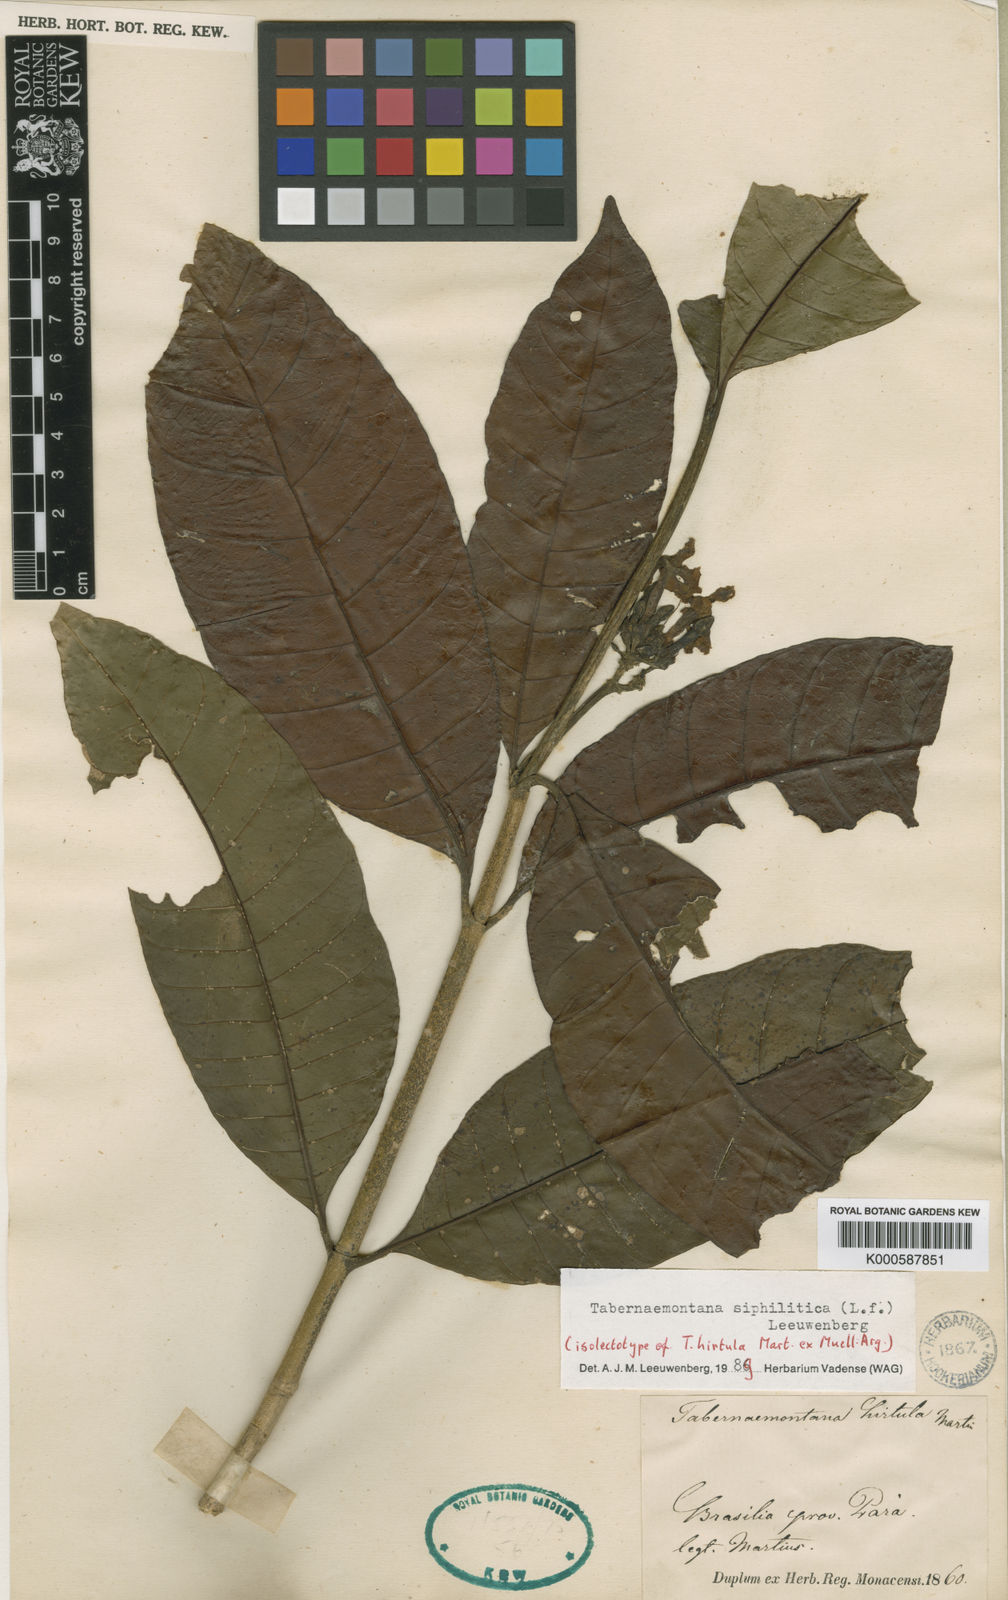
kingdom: Plantae
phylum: Tracheophyta
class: Magnoliopsida
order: Gentianales
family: Apocynaceae
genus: Tabernaemontana
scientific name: Tabernaemontana siphilitica
